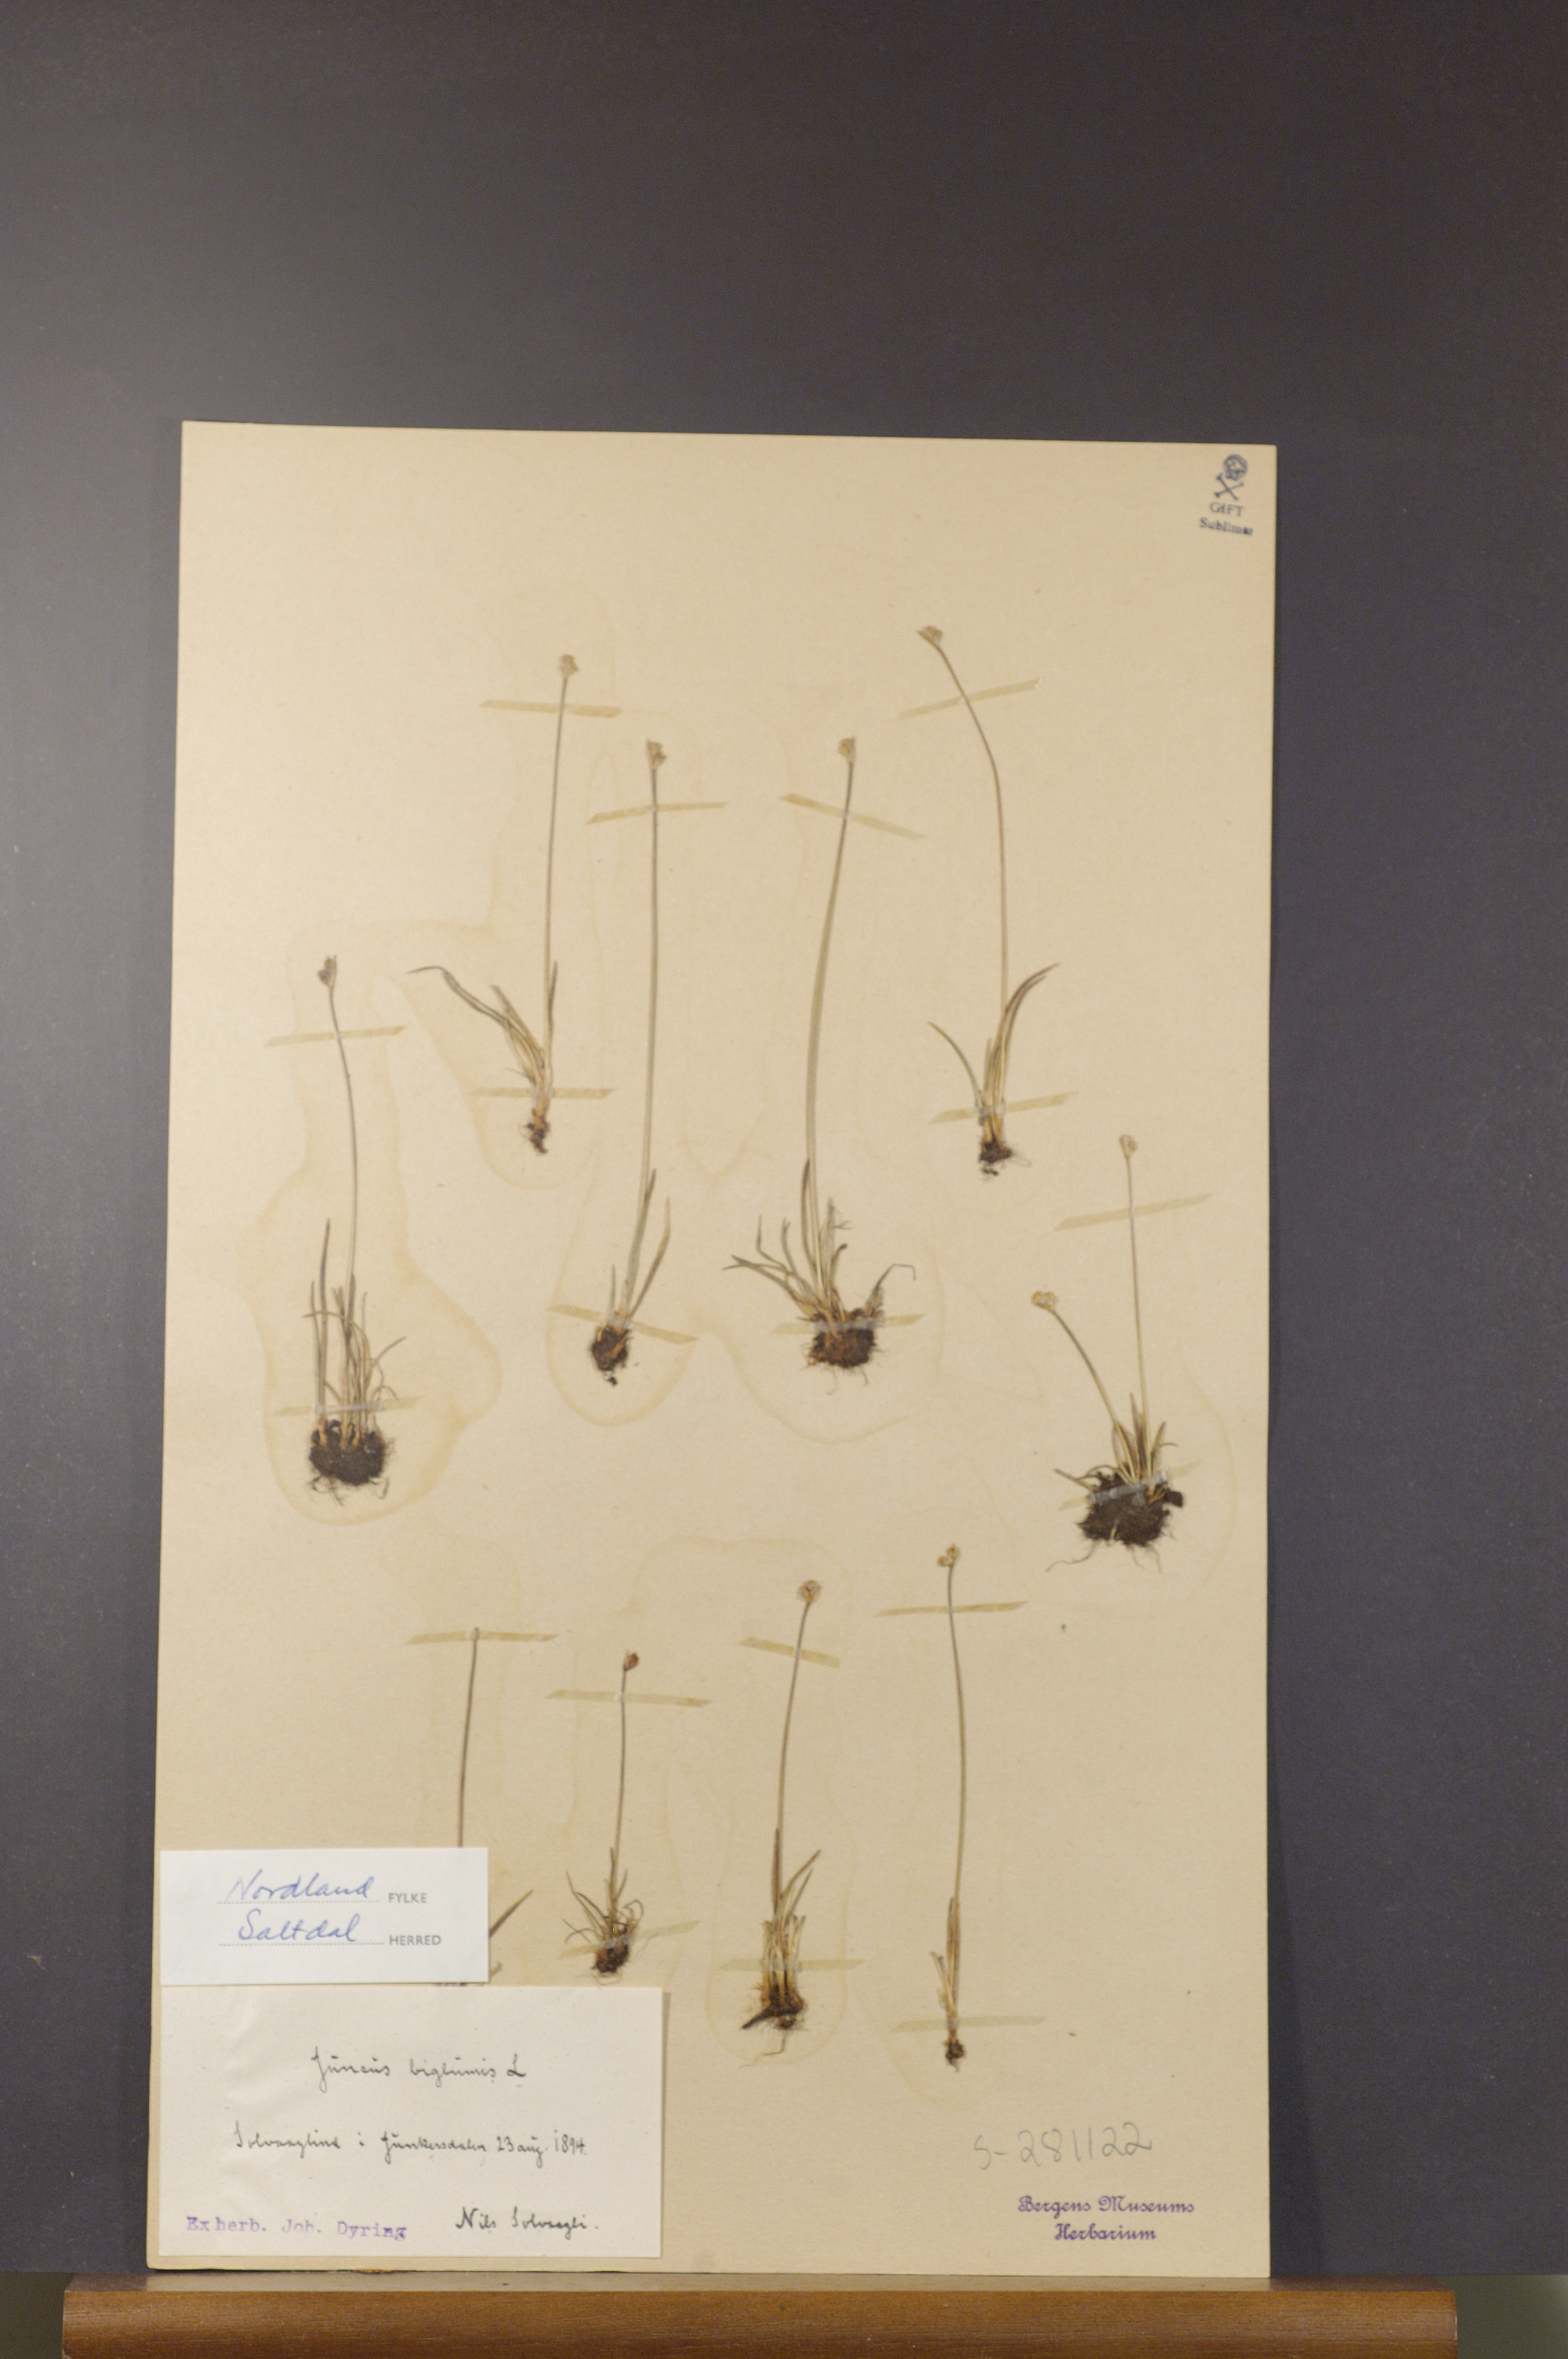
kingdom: Plantae
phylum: Tracheophyta
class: Liliopsida
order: Poales
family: Juncaceae
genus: Juncus
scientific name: Juncus biglumis
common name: Two-flowered rush
